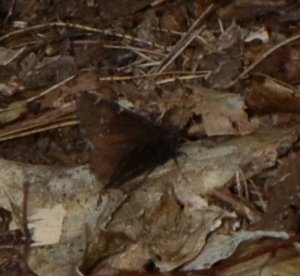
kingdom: Animalia
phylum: Arthropoda
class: Insecta
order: Lepidoptera
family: Hesperiidae
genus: Autochton
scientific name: Autochton
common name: Northern Cloudywing
